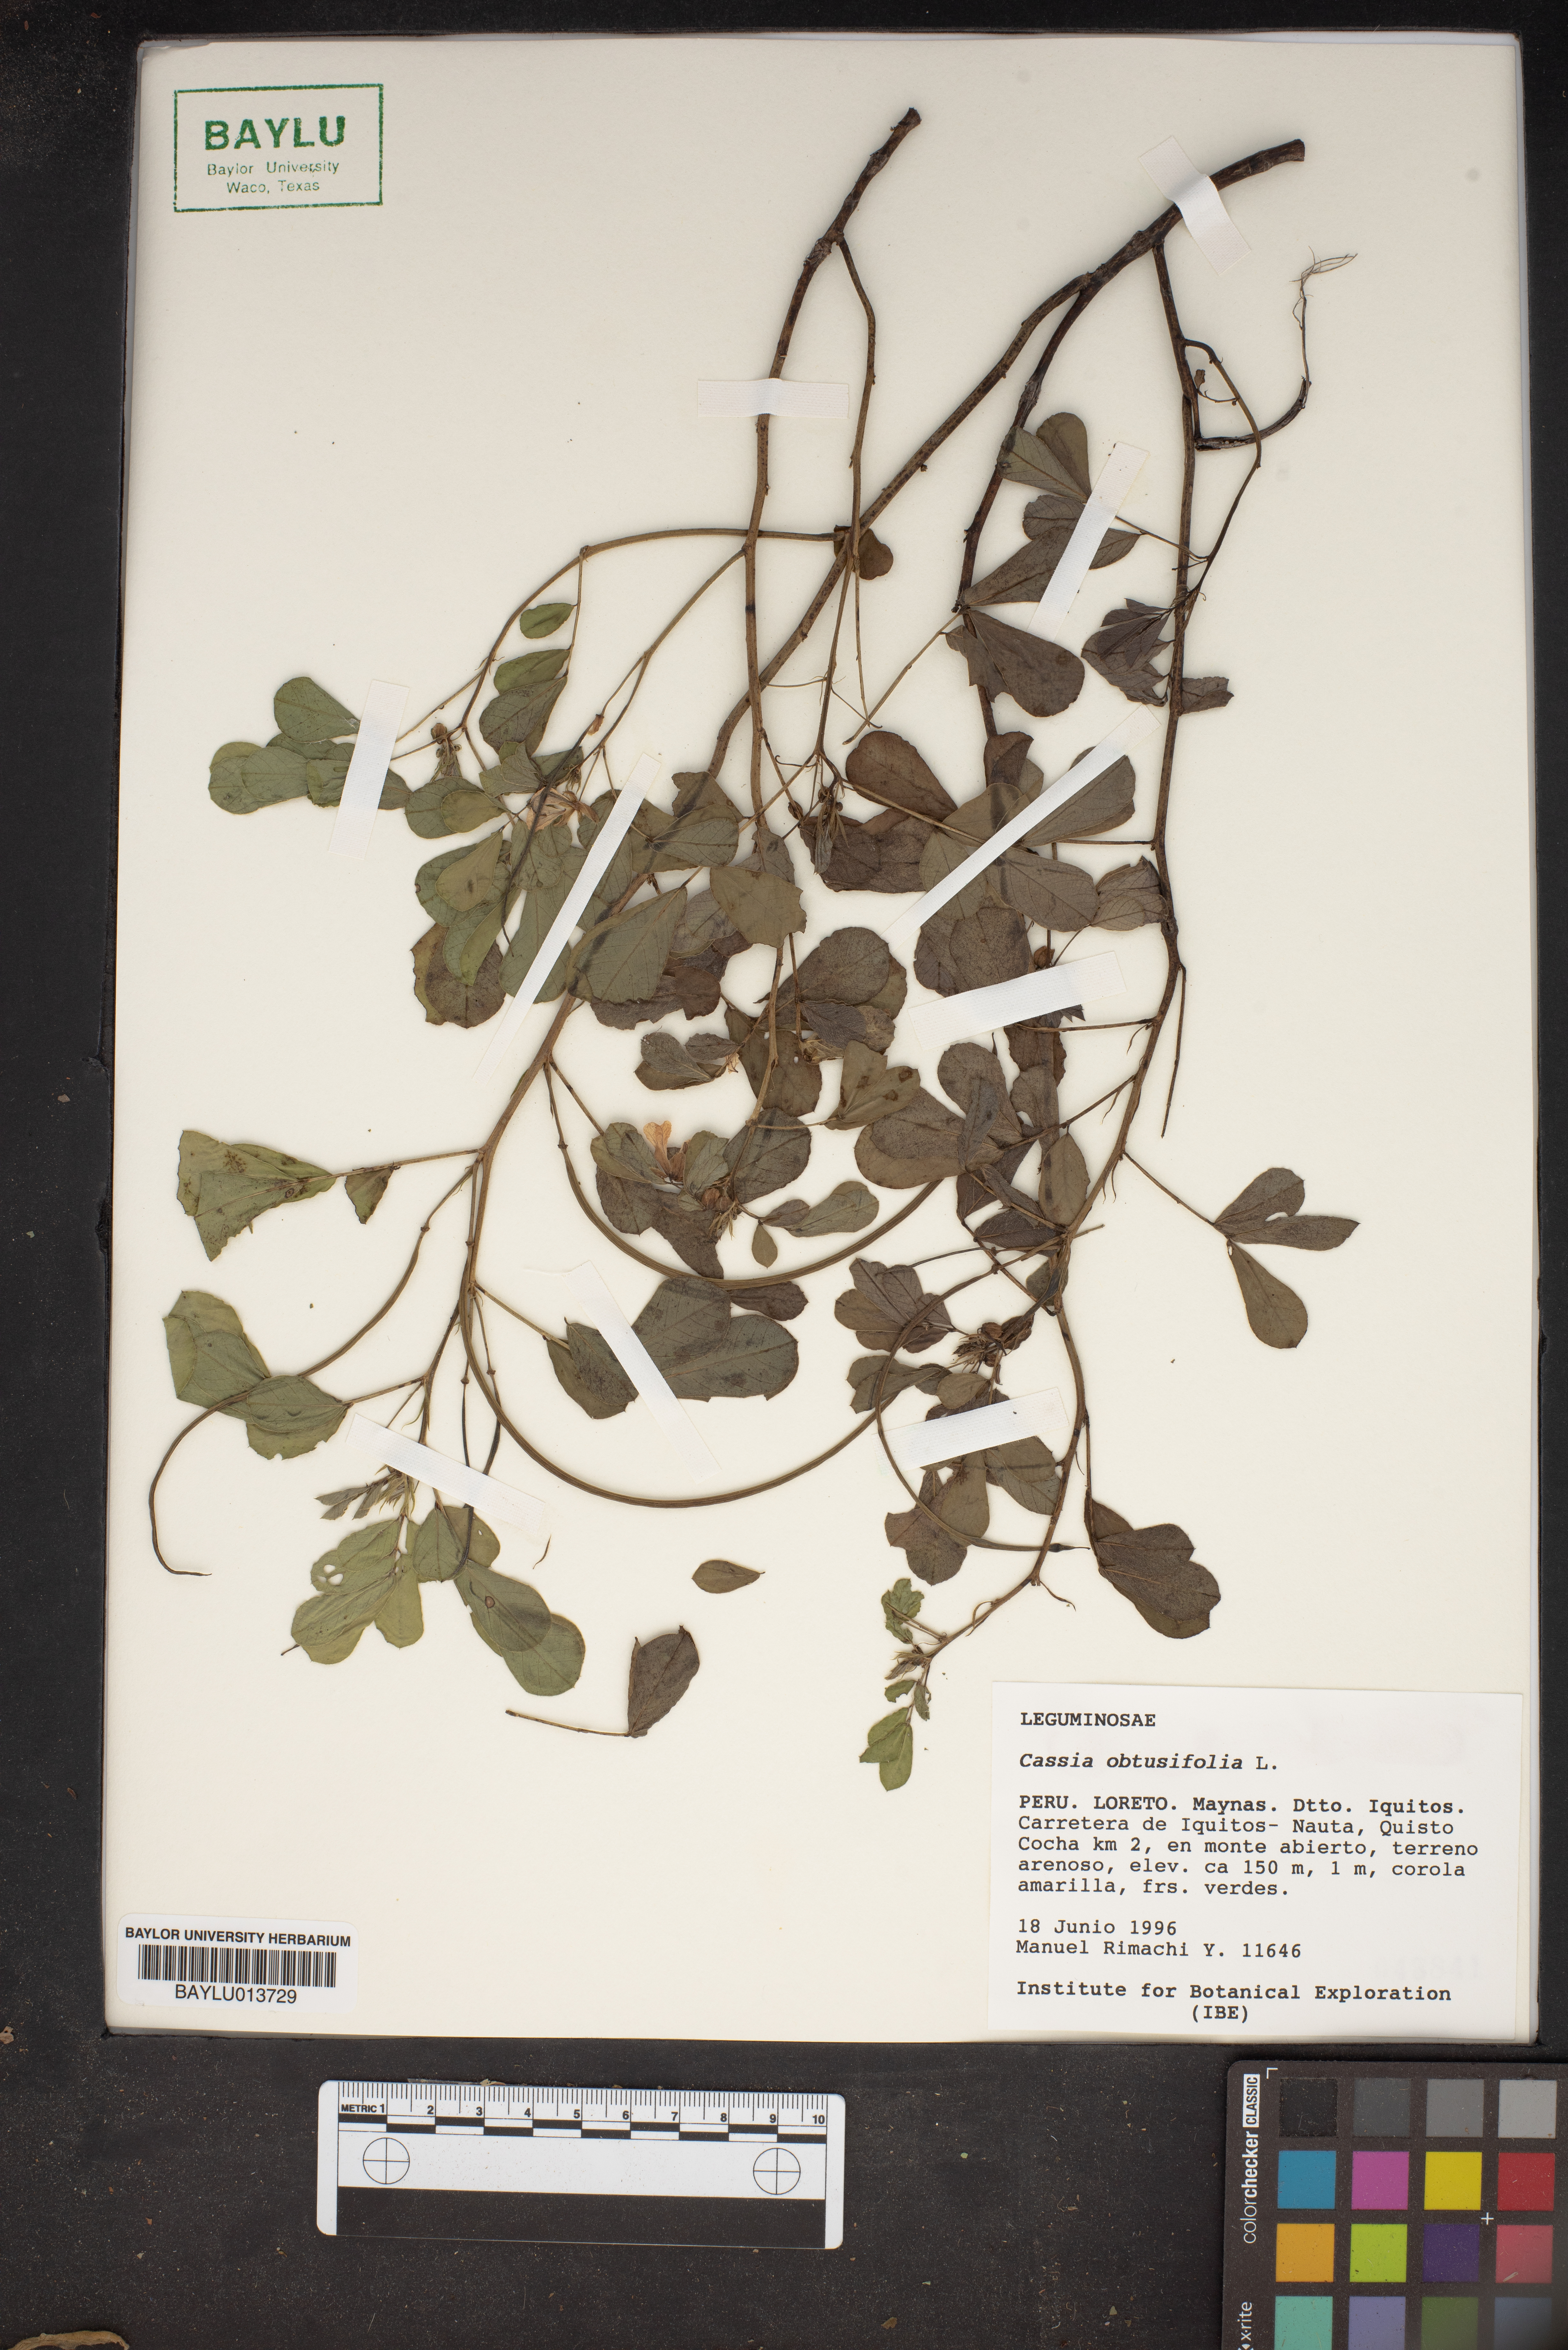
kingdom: Plantae
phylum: Tracheophyta
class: Magnoliopsida
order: Fabales
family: Fabaceae
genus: Senna
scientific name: Senna obtusifolia
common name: Java-bean
